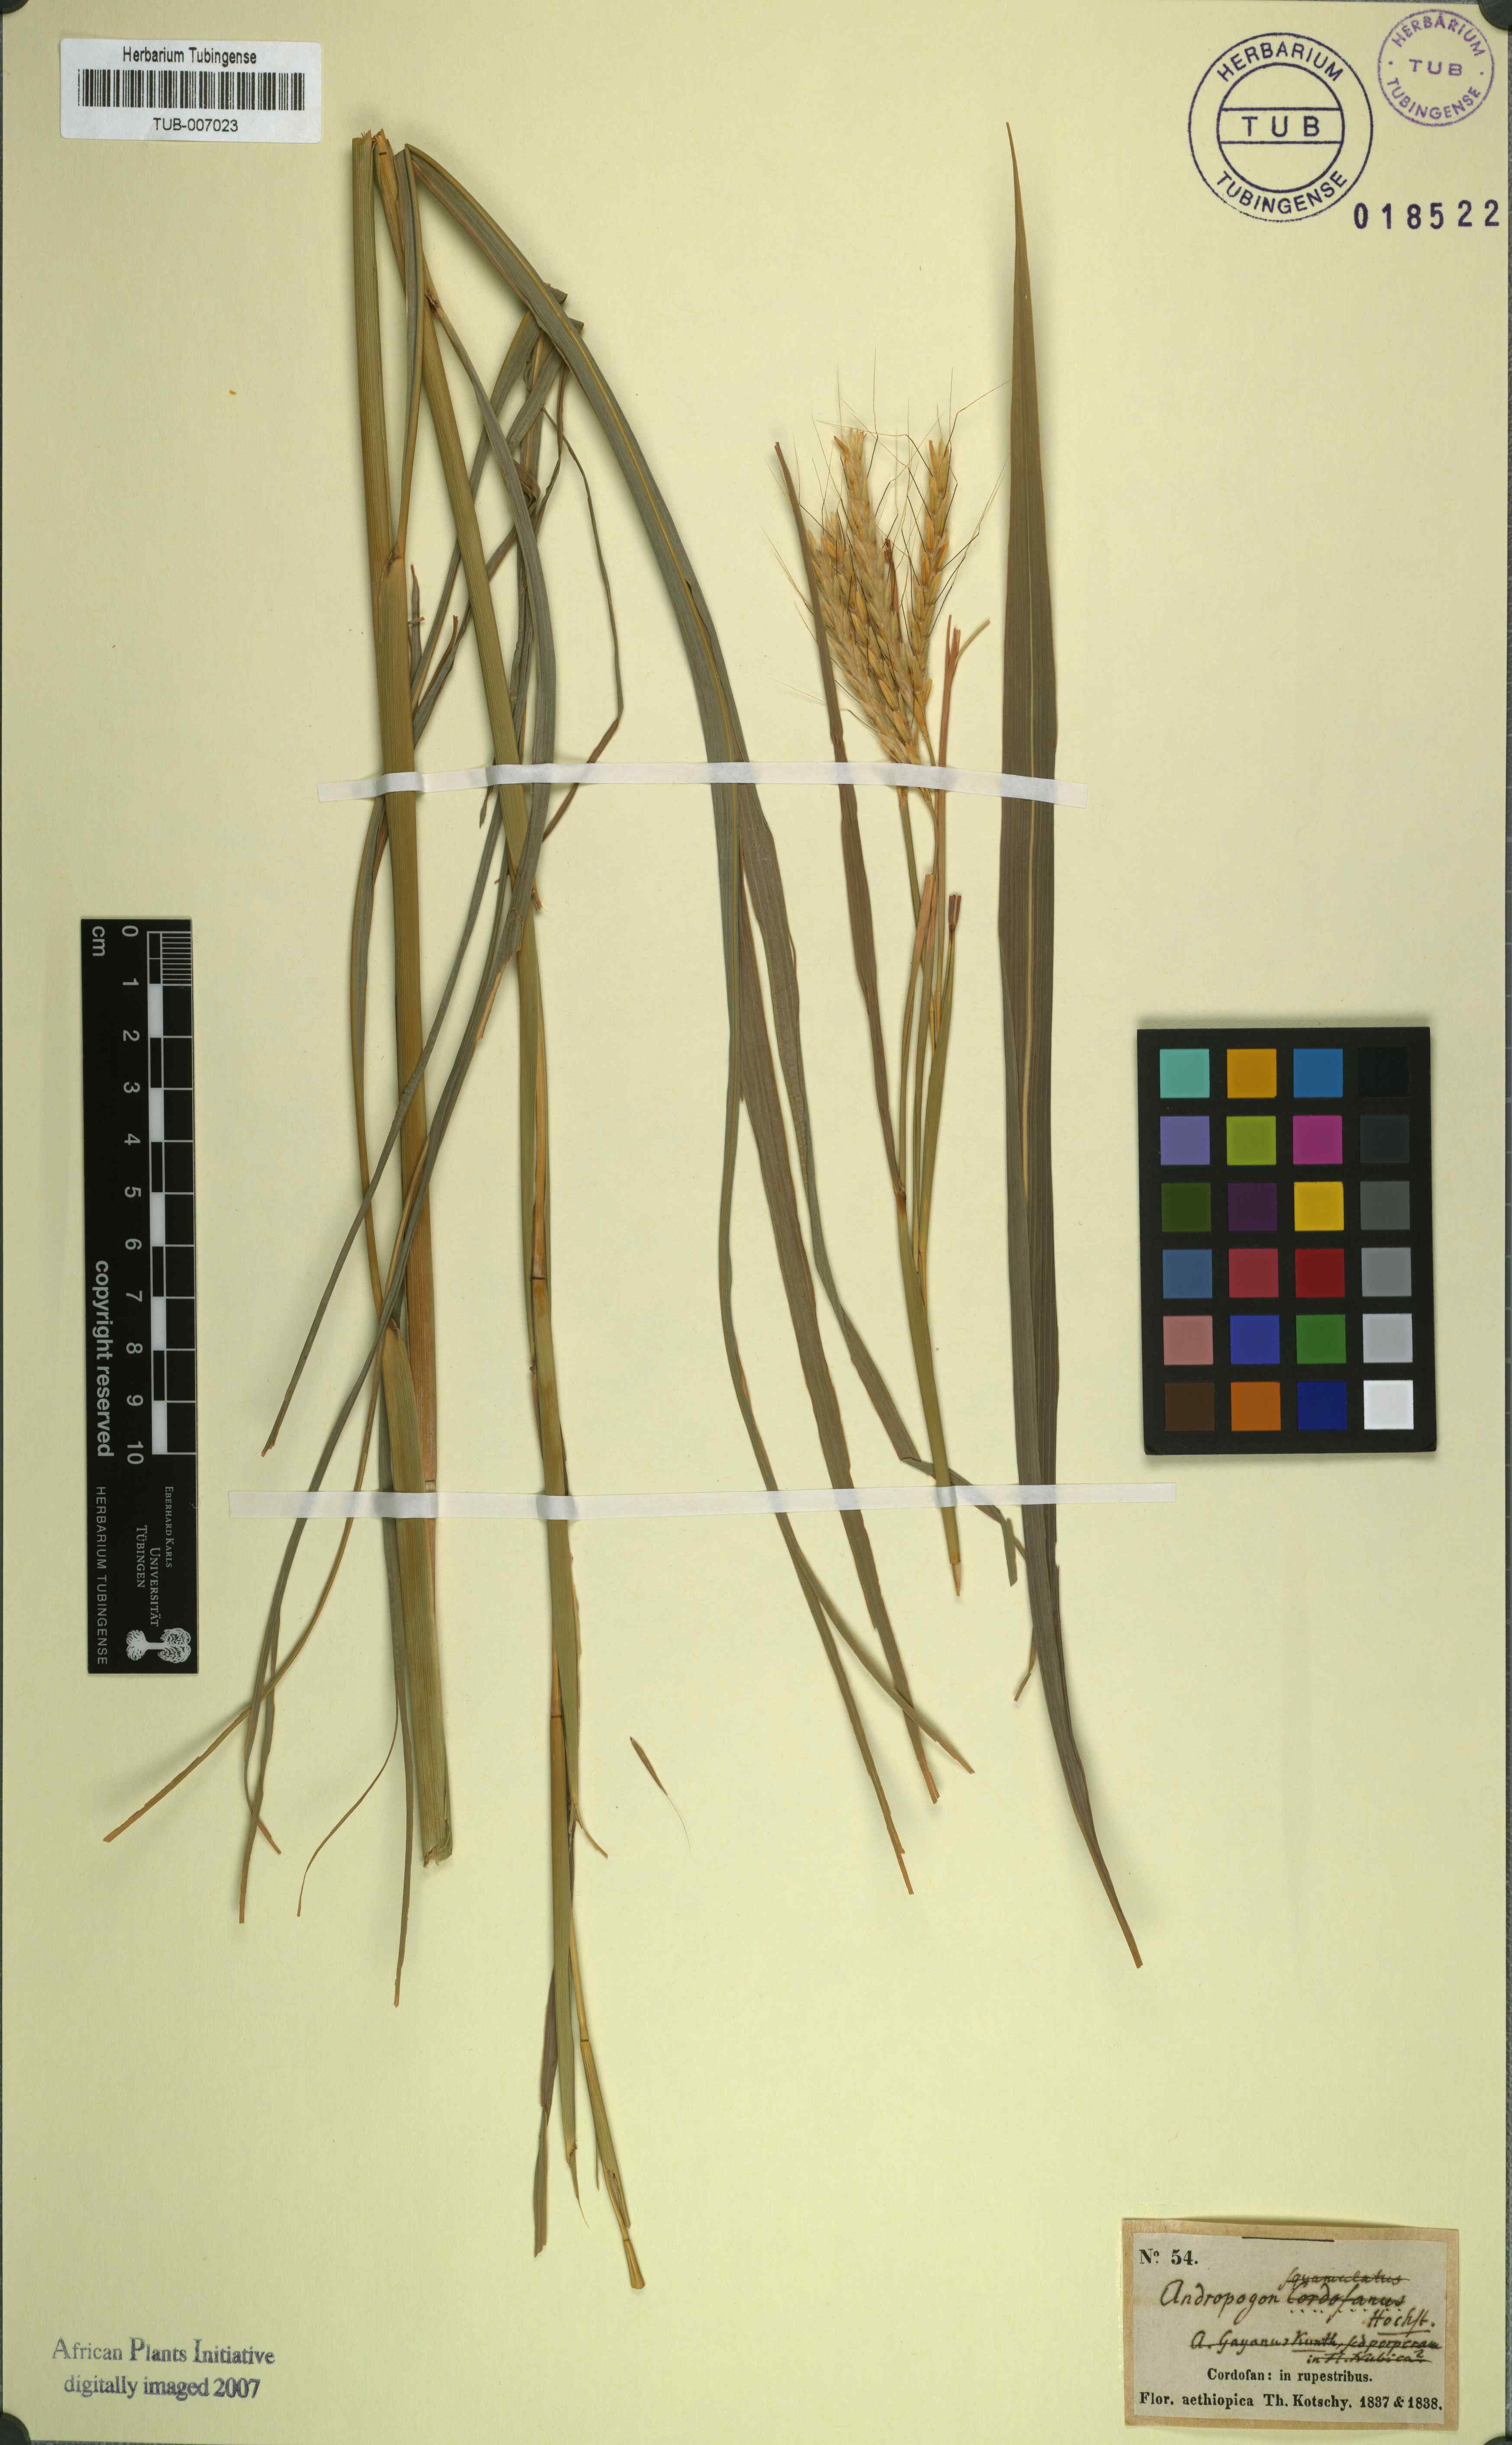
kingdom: Plantae
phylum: Tracheophyta
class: Liliopsida
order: Poales
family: Poaceae
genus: Andropogon
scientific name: Andropogon gayanus
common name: Tambuki grass
